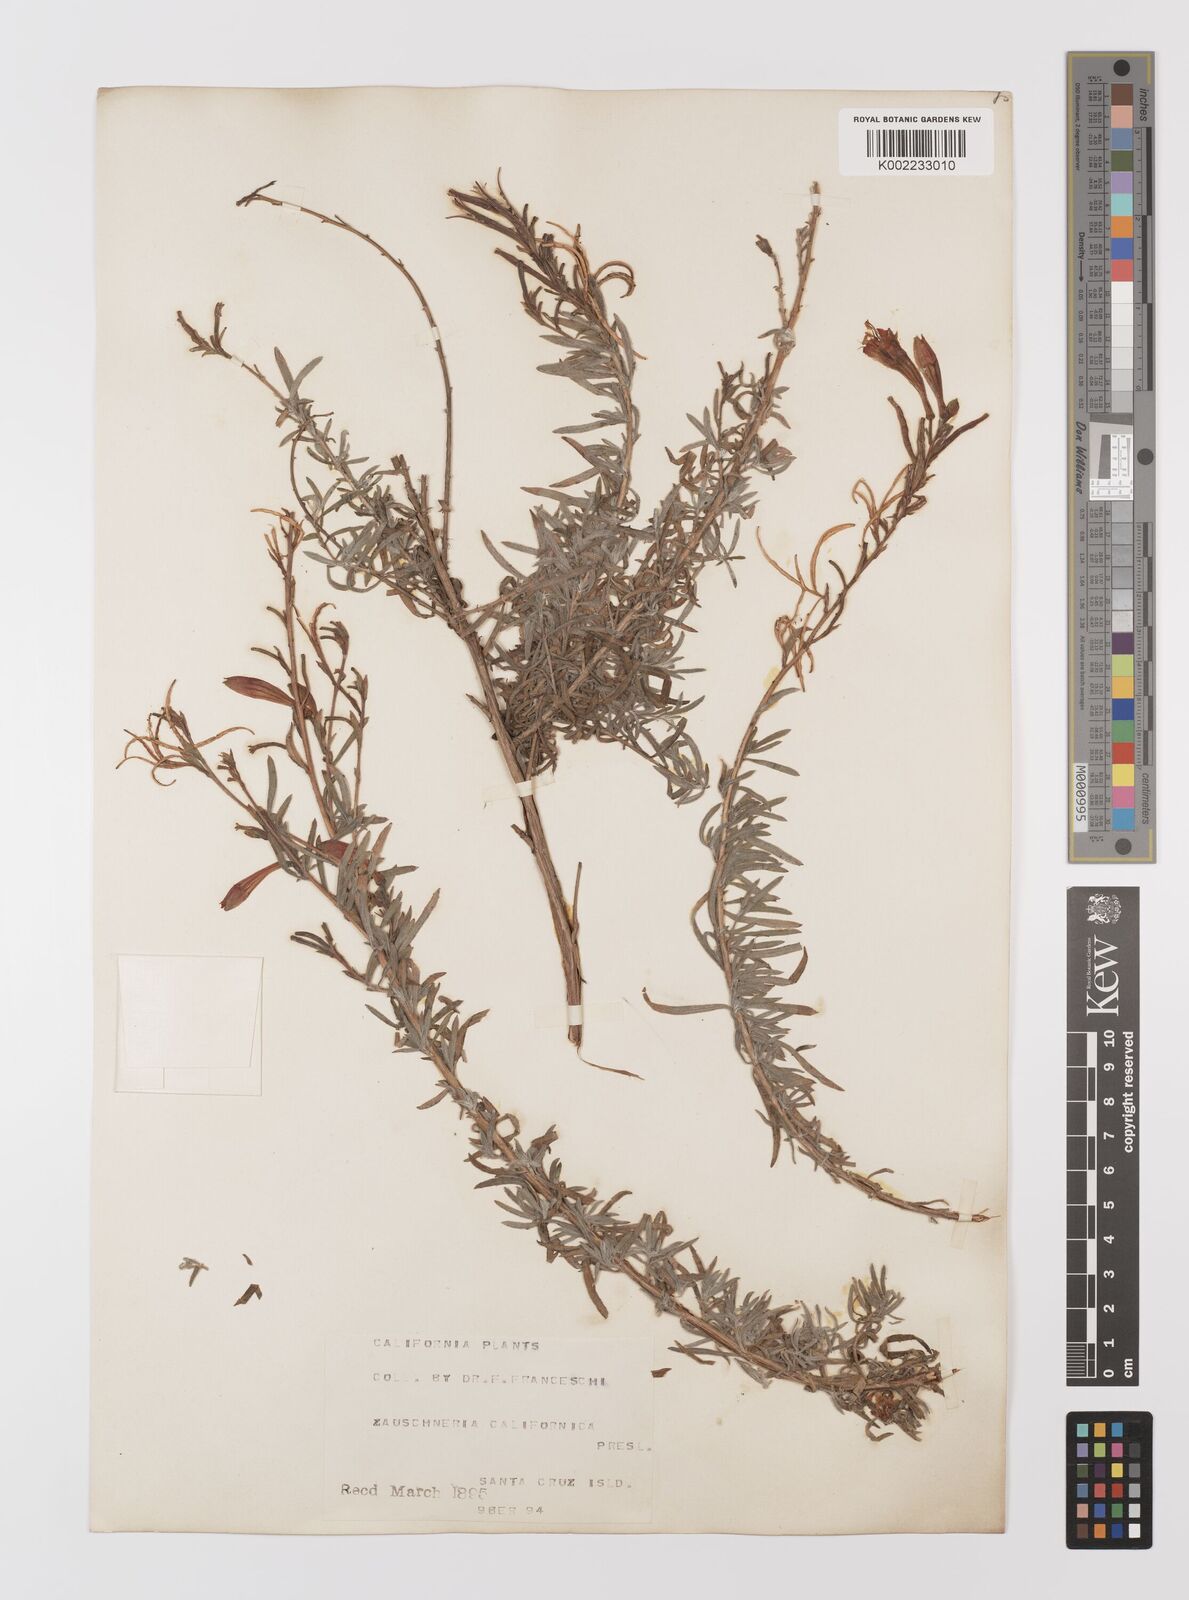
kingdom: Plantae
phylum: Tracheophyta
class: Magnoliopsida
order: Myrtales
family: Onagraceae
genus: Epilobium
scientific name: Epilobium canum
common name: California-fuchsia
